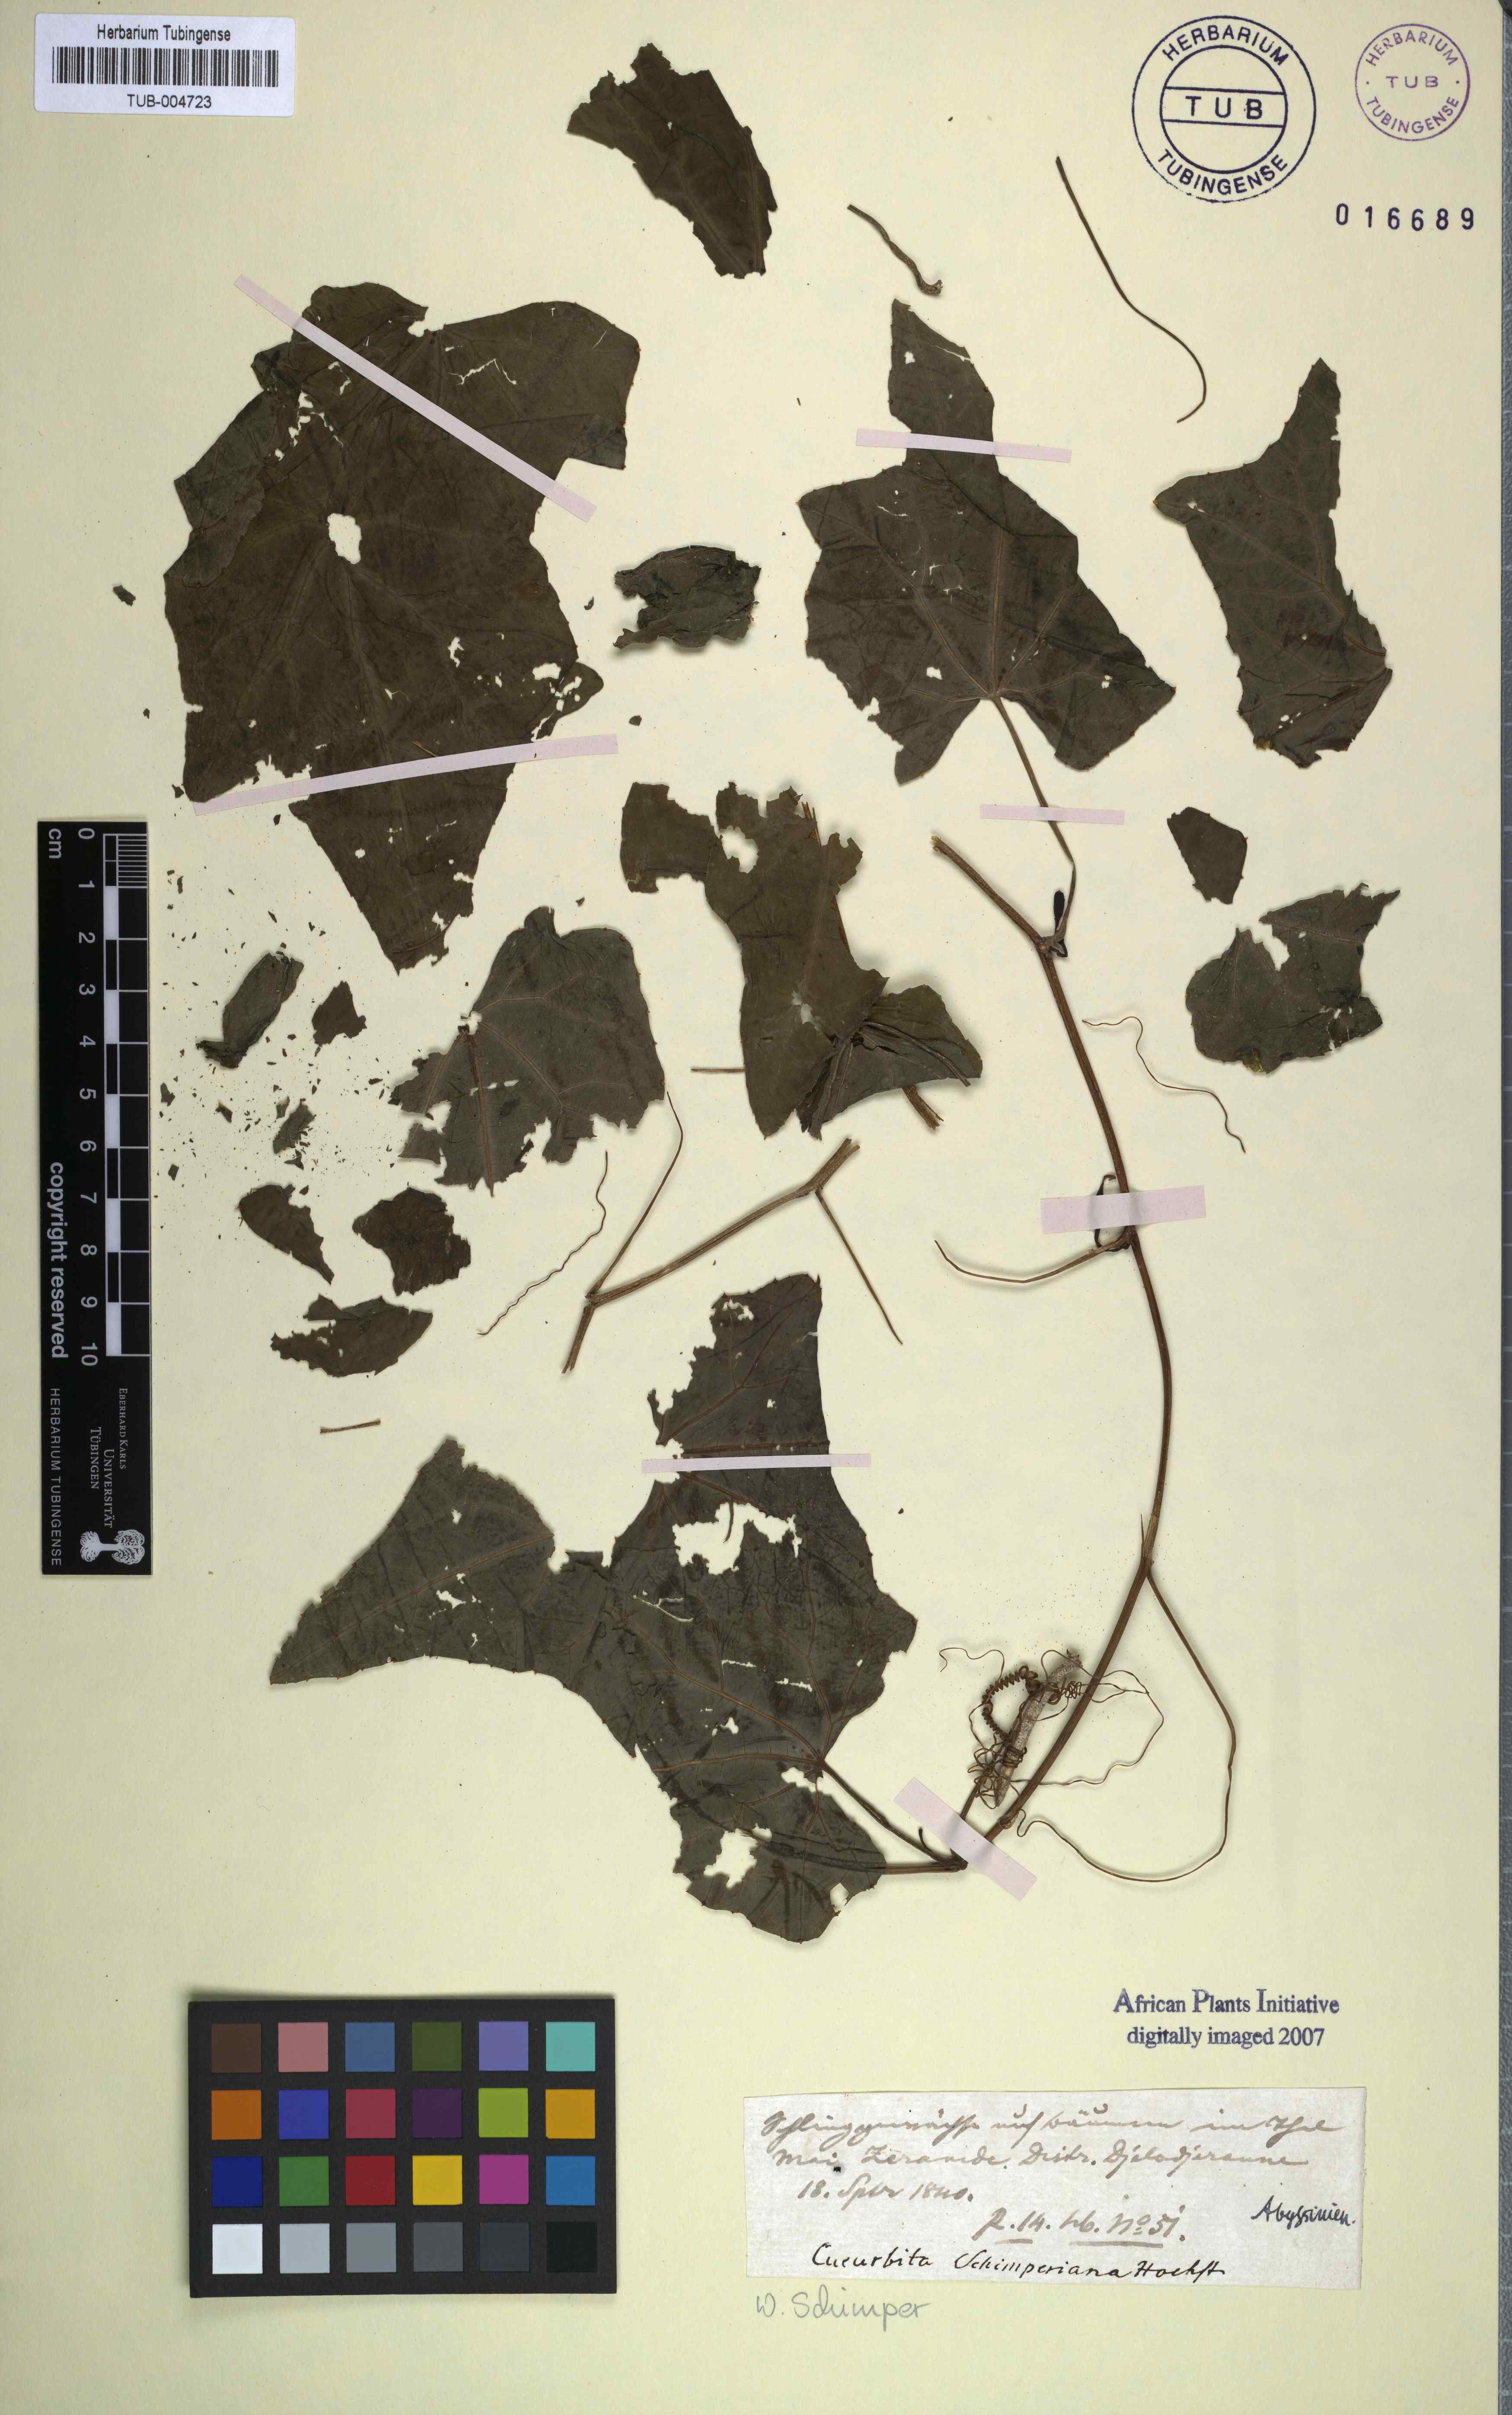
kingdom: Plantae
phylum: Tracheophyta
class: Magnoliopsida
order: Cucurbitales
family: Cucurbitaceae
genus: Coccinia
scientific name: Coccinia grandis
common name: Ivy gourd
